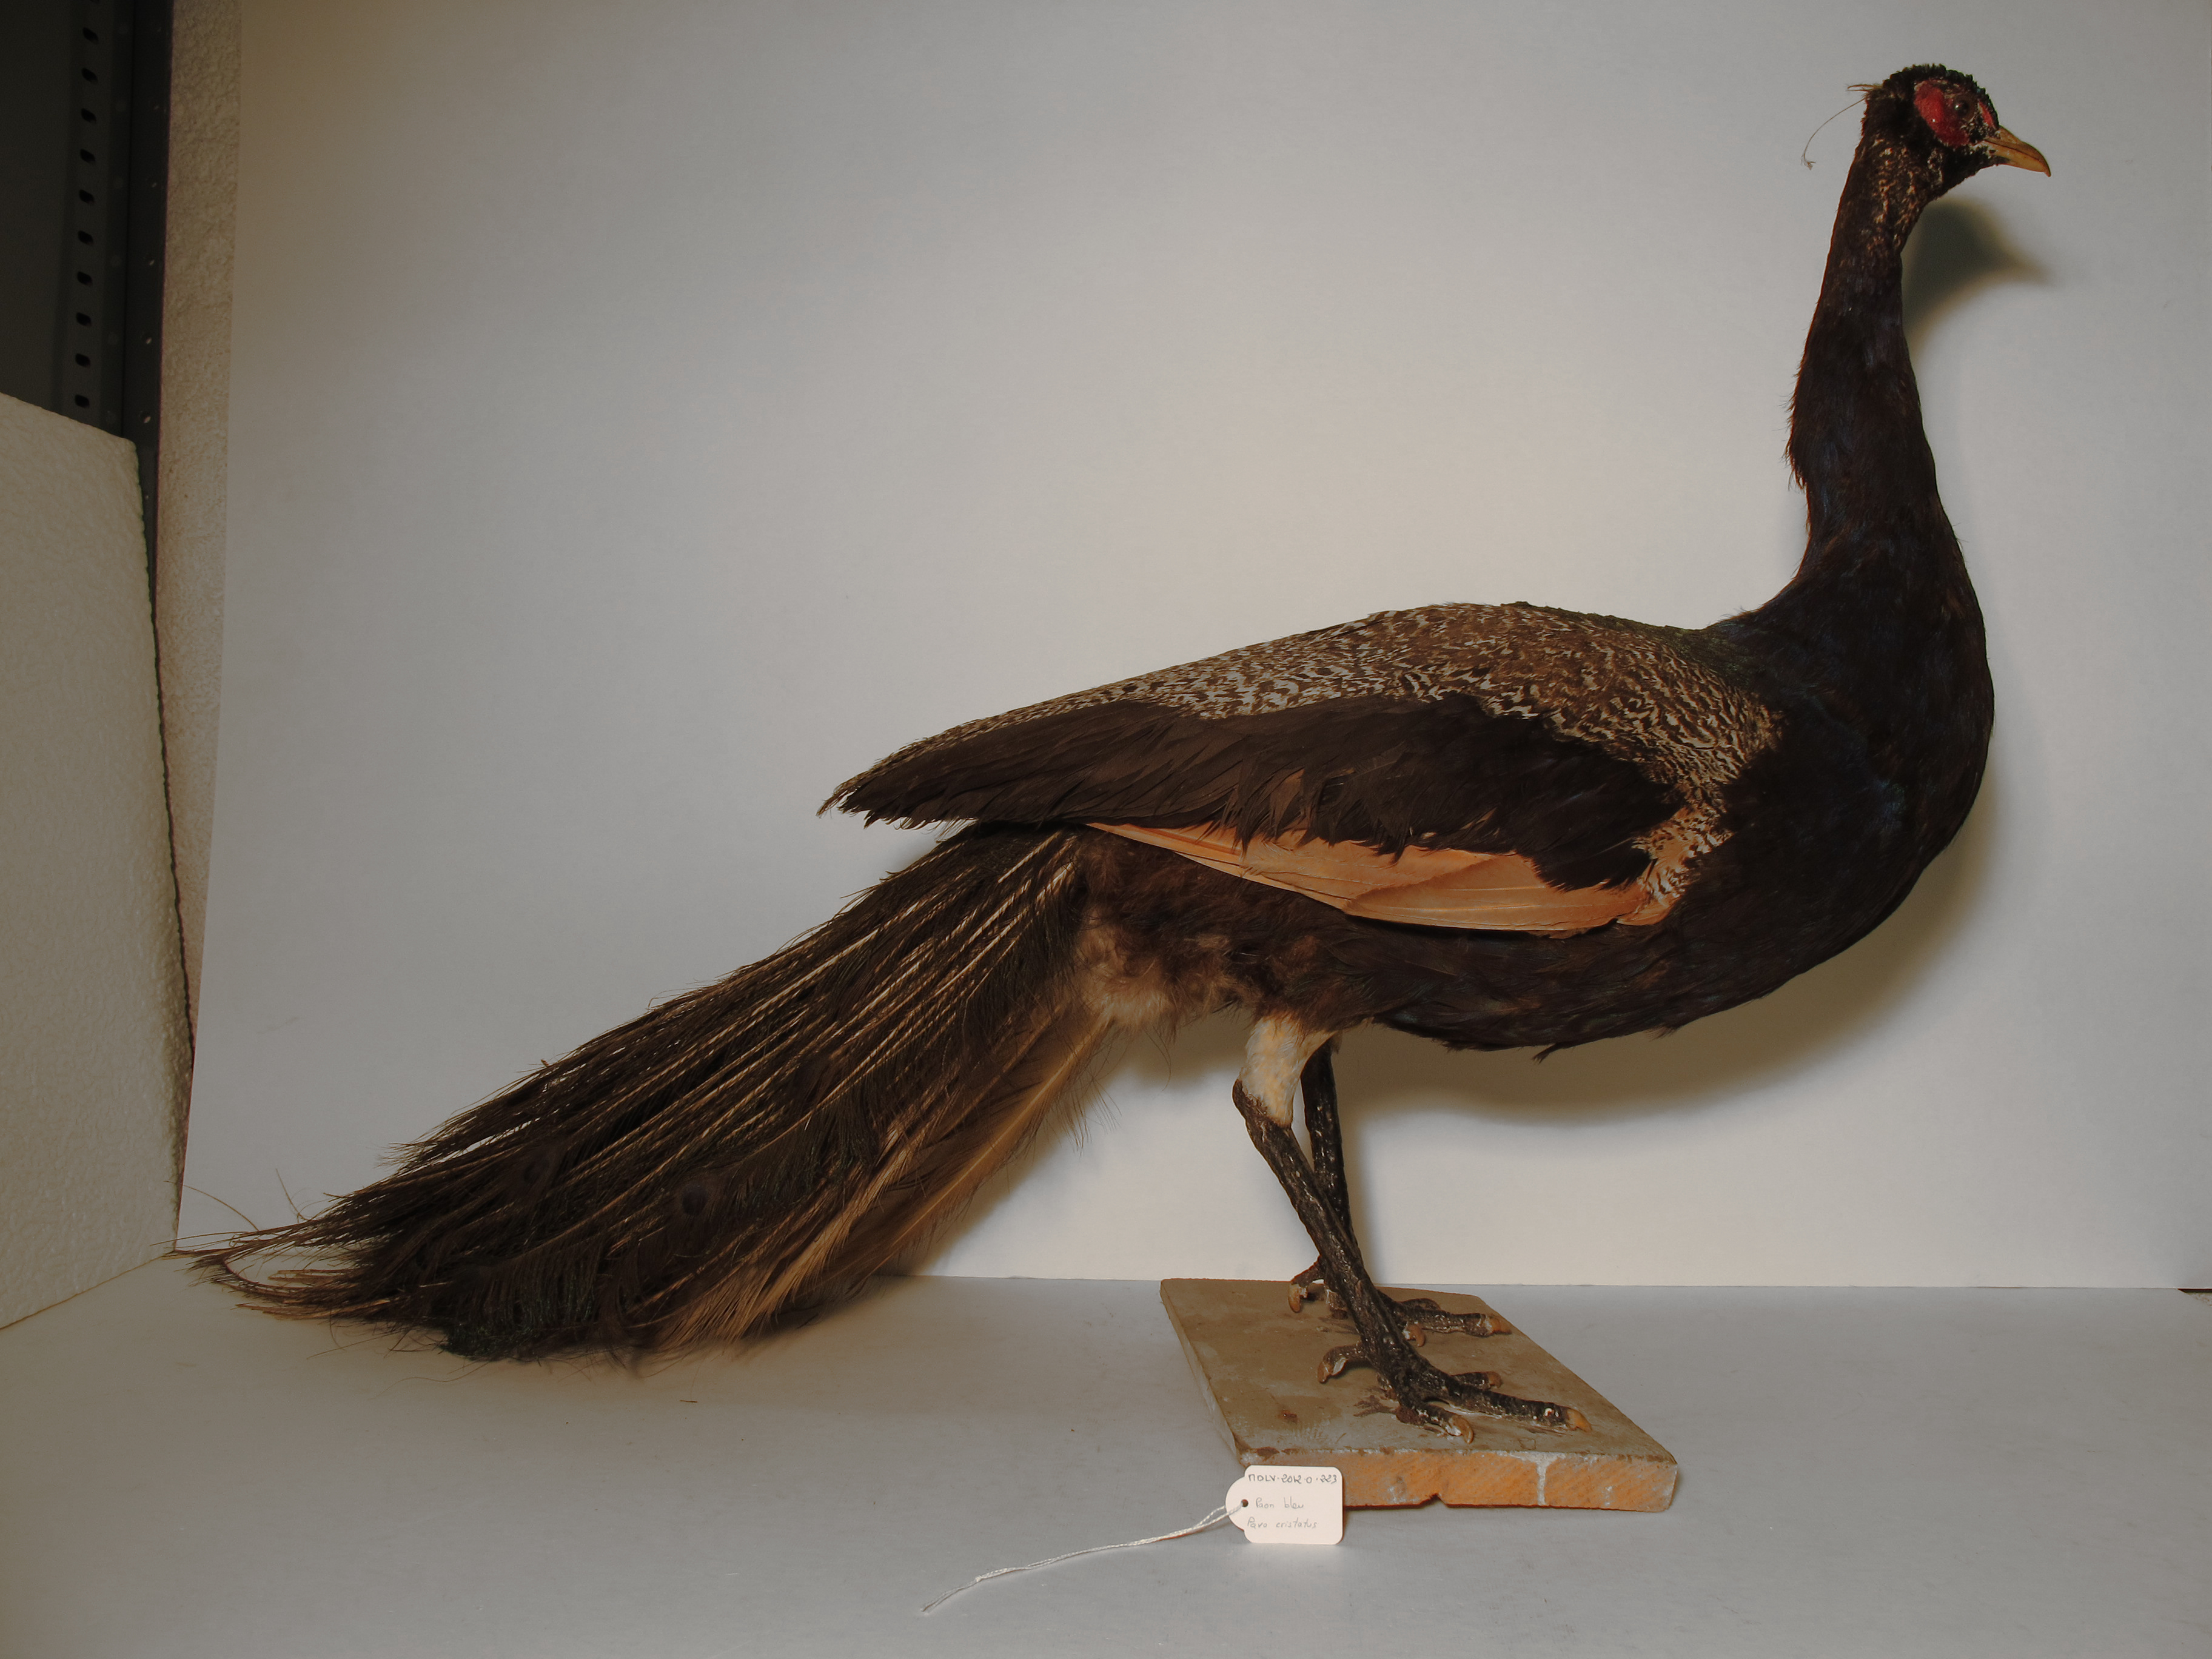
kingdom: Animalia
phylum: Chordata
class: Aves
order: Galliformes
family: Phasianidae
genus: Pavo
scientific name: Pavo cristatus
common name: Indian Peafowl
